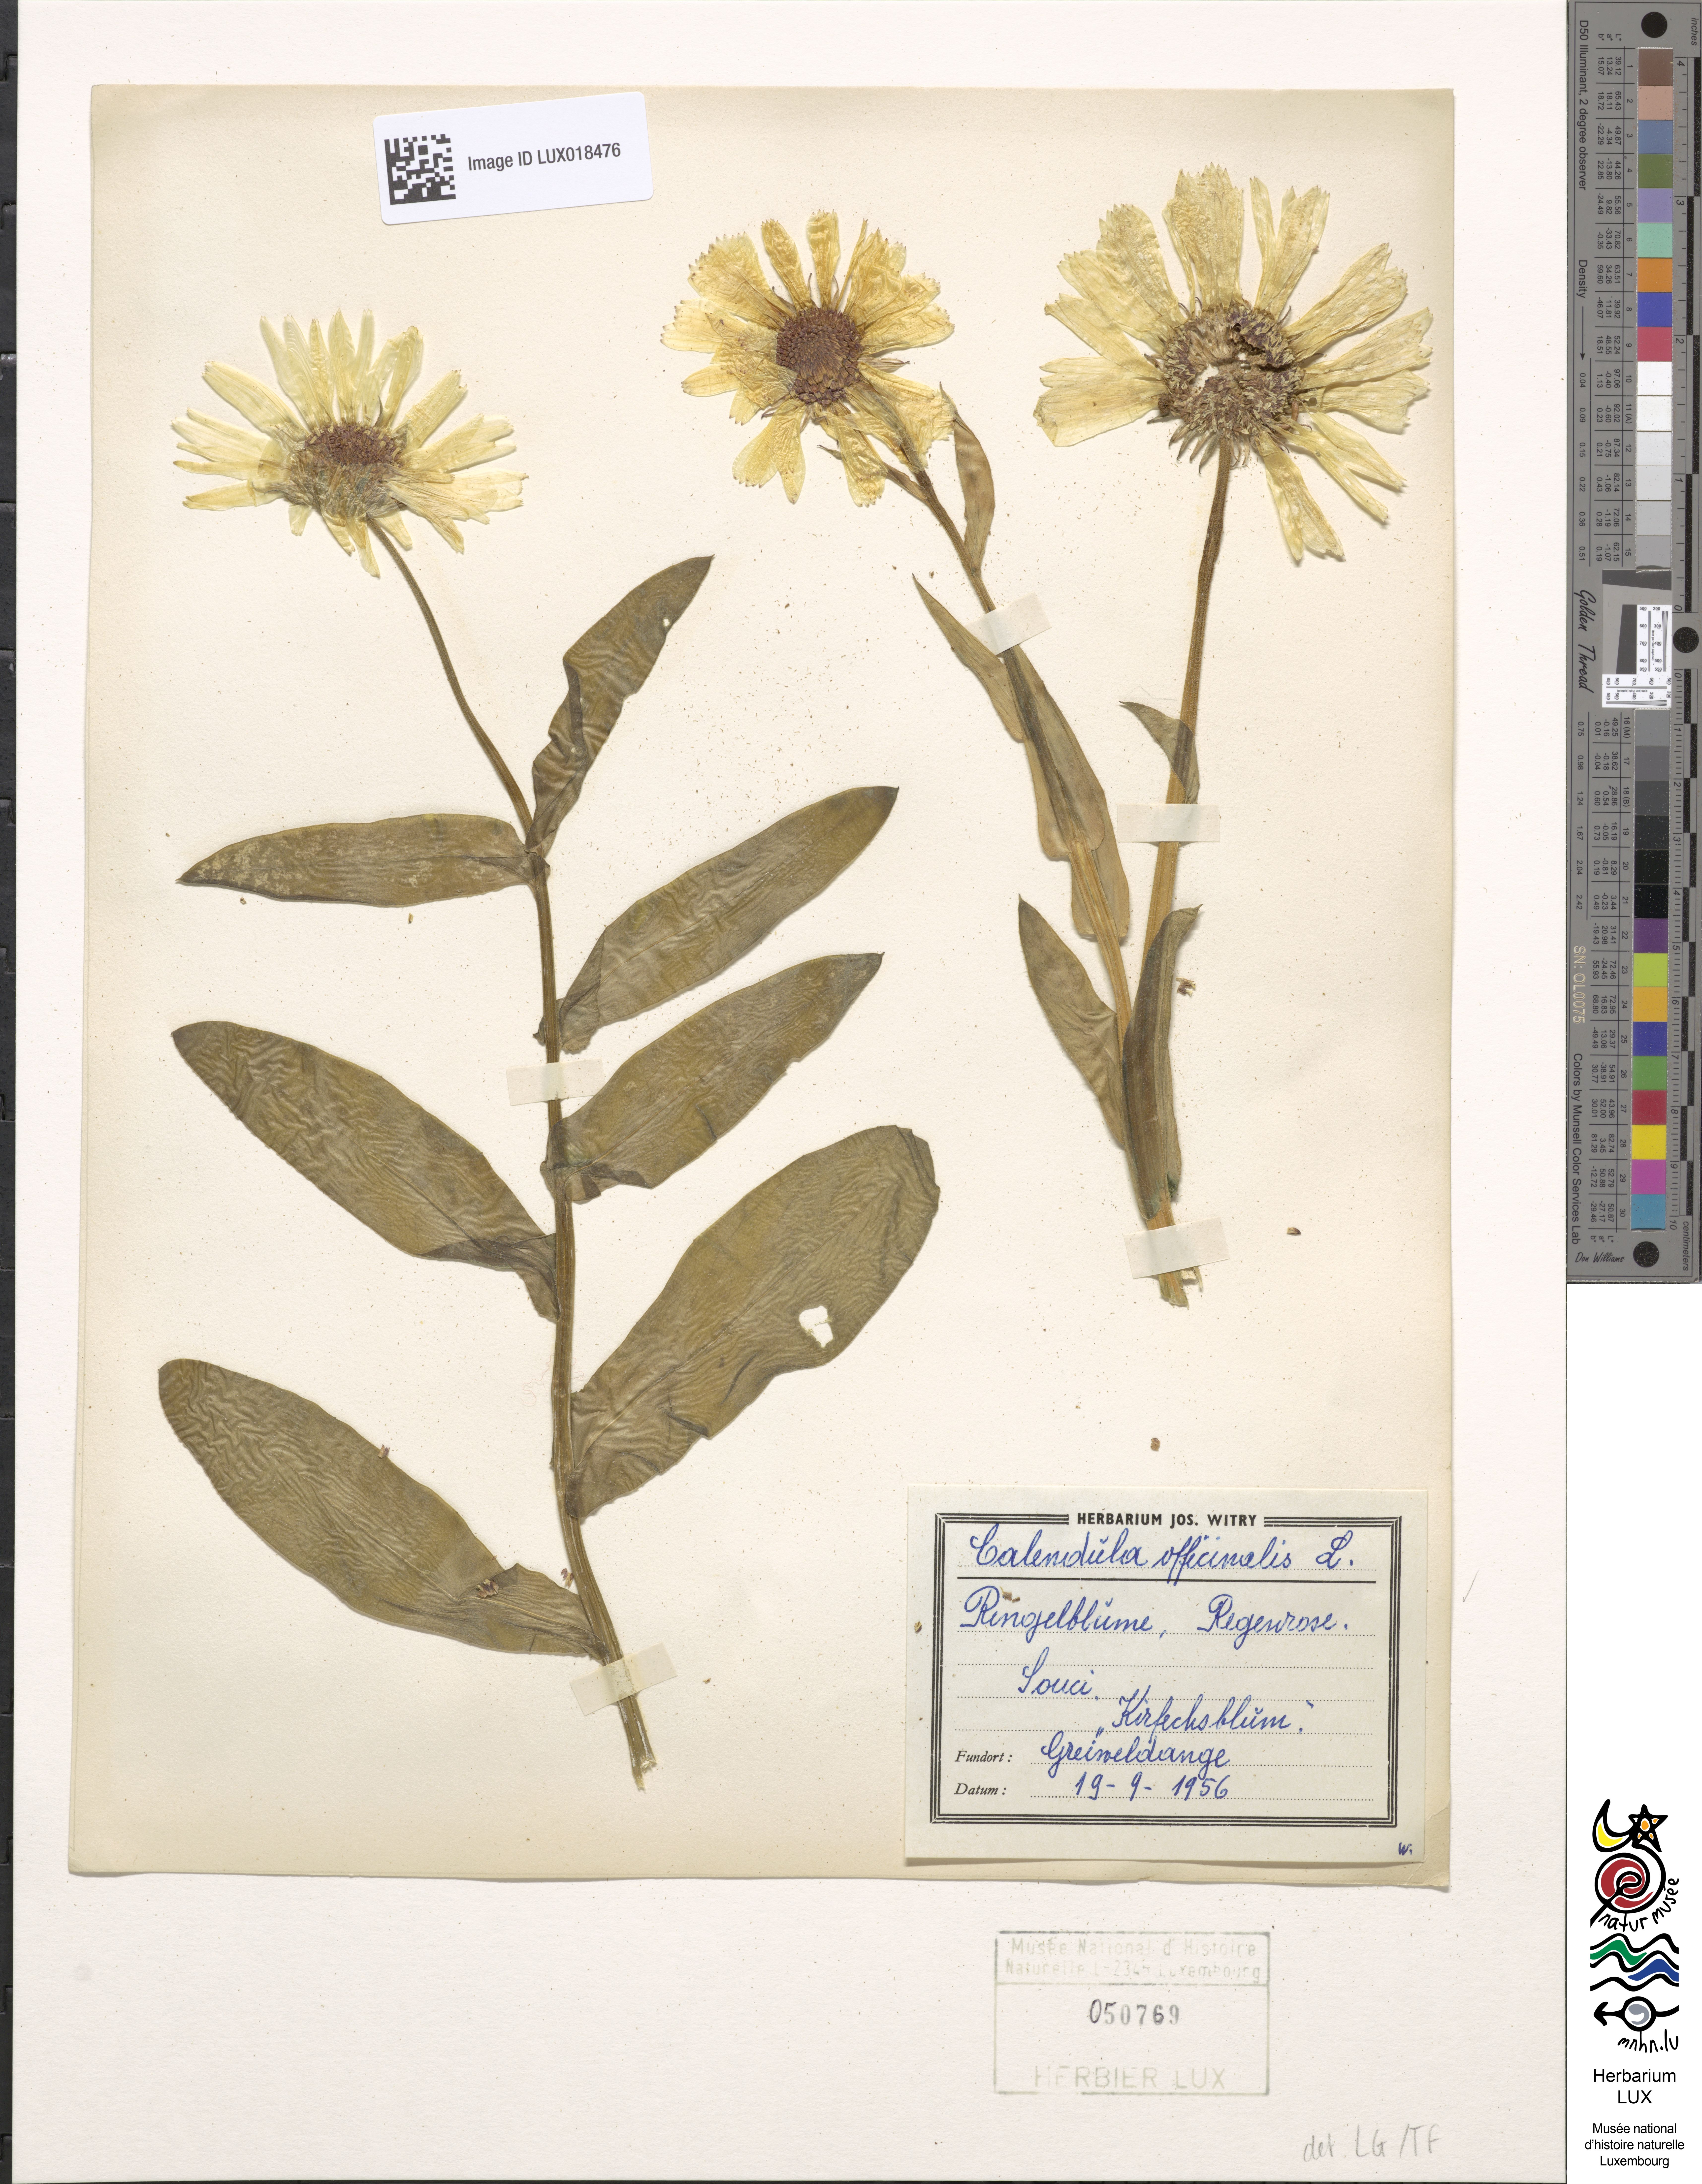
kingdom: Plantae
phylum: Tracheophyta
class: Magnoliopsida
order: Asterales
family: Asteraceae
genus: Calendula
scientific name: Calendula officinalis
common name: Pot marigold
